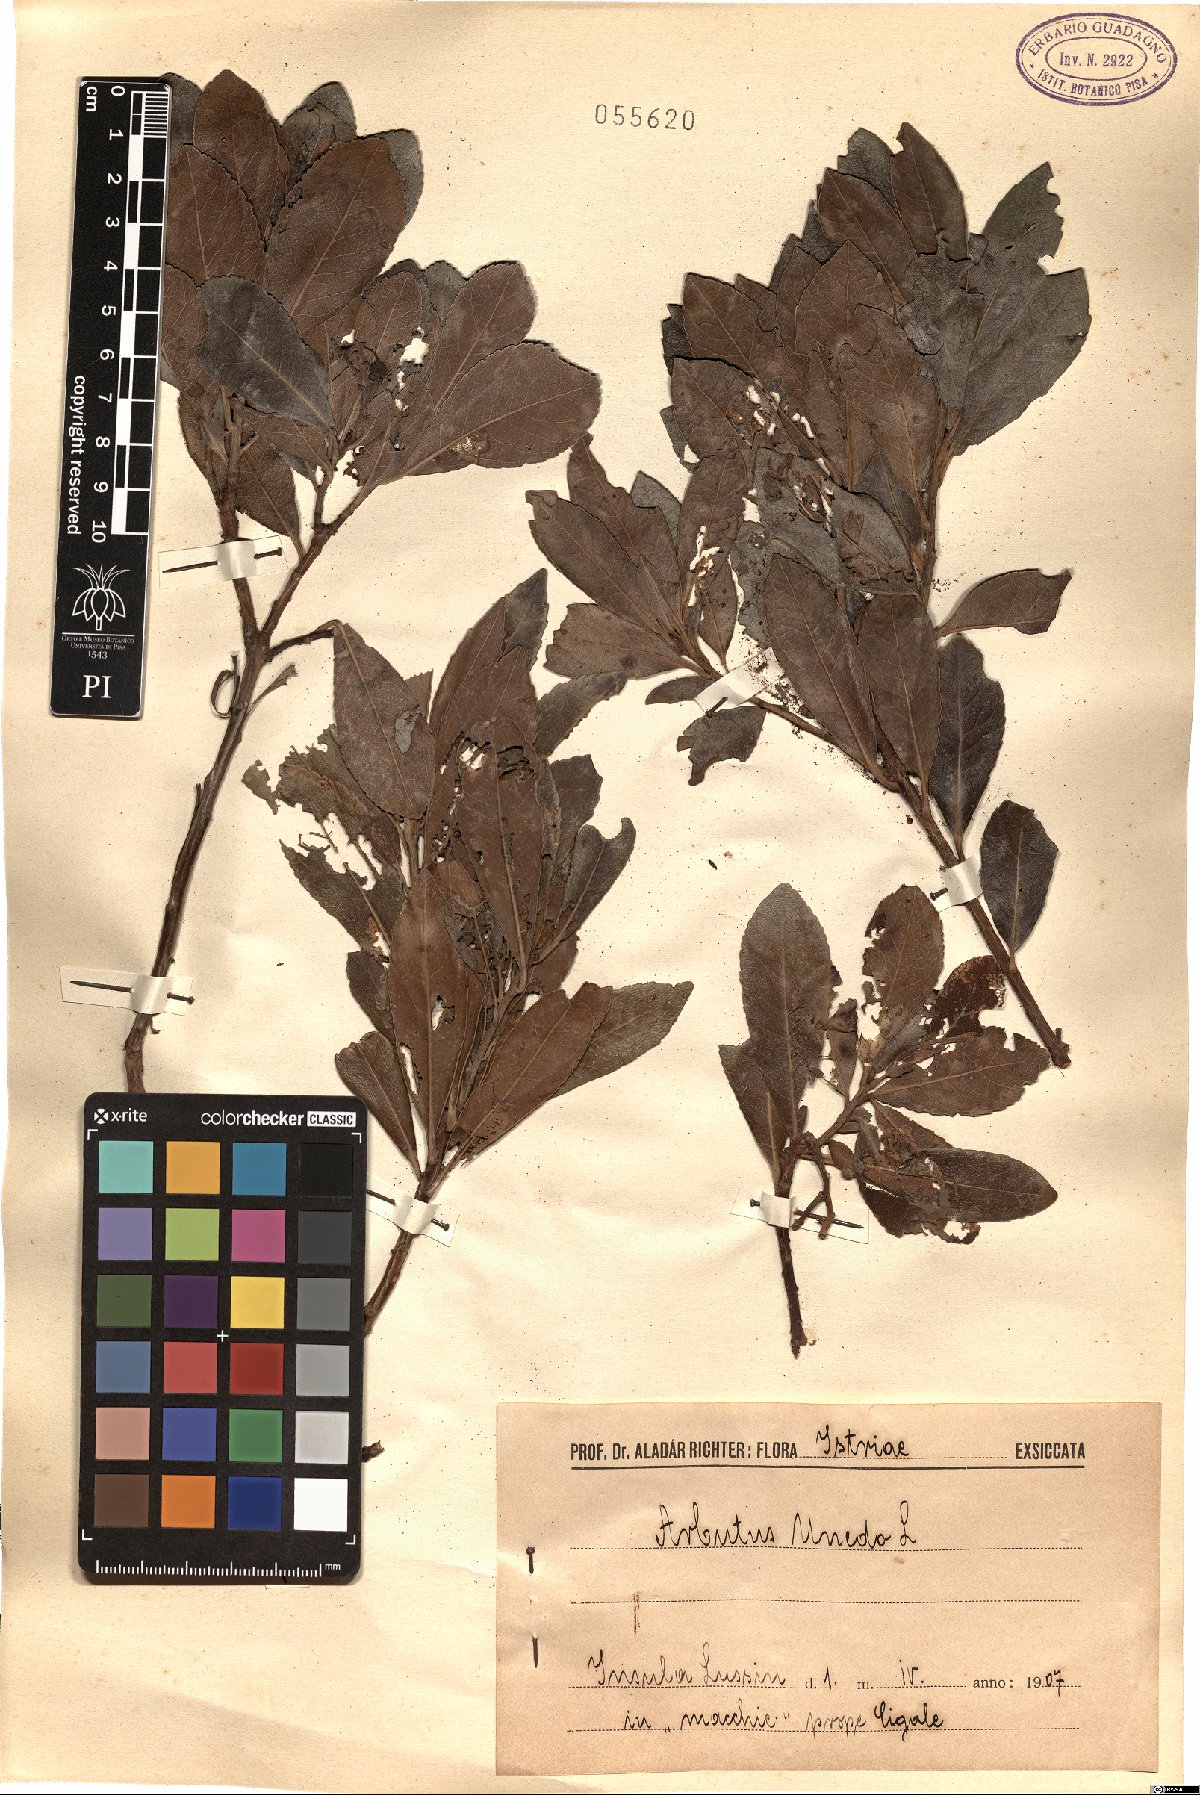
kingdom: Plantae
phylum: Tracheophyta
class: Magnoliopsida
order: Ericales
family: Ericaceae
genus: Arbutus
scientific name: Arbutus unedo
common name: Strawberry-tree
